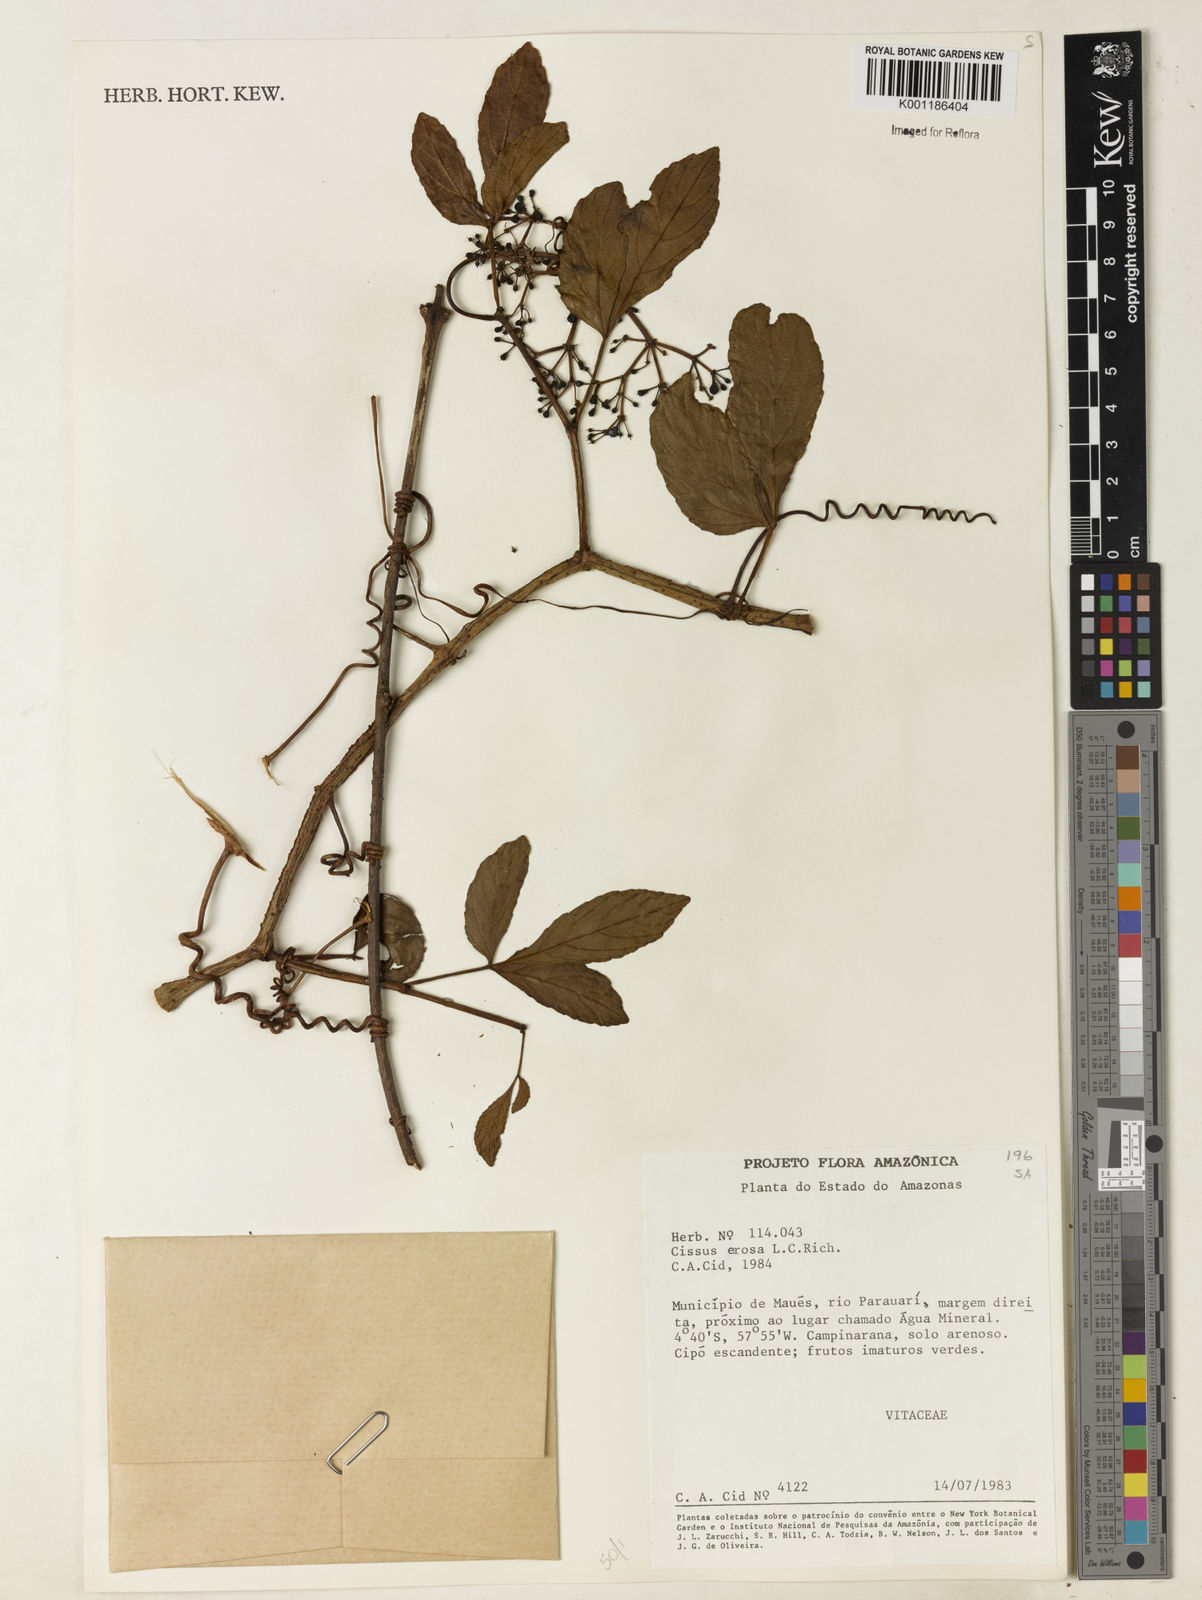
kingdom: Plantae
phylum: Tracheophyta
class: Magnoliopsida
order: Vitales
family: Vitaceae
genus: Cissus
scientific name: Cissus erosa
